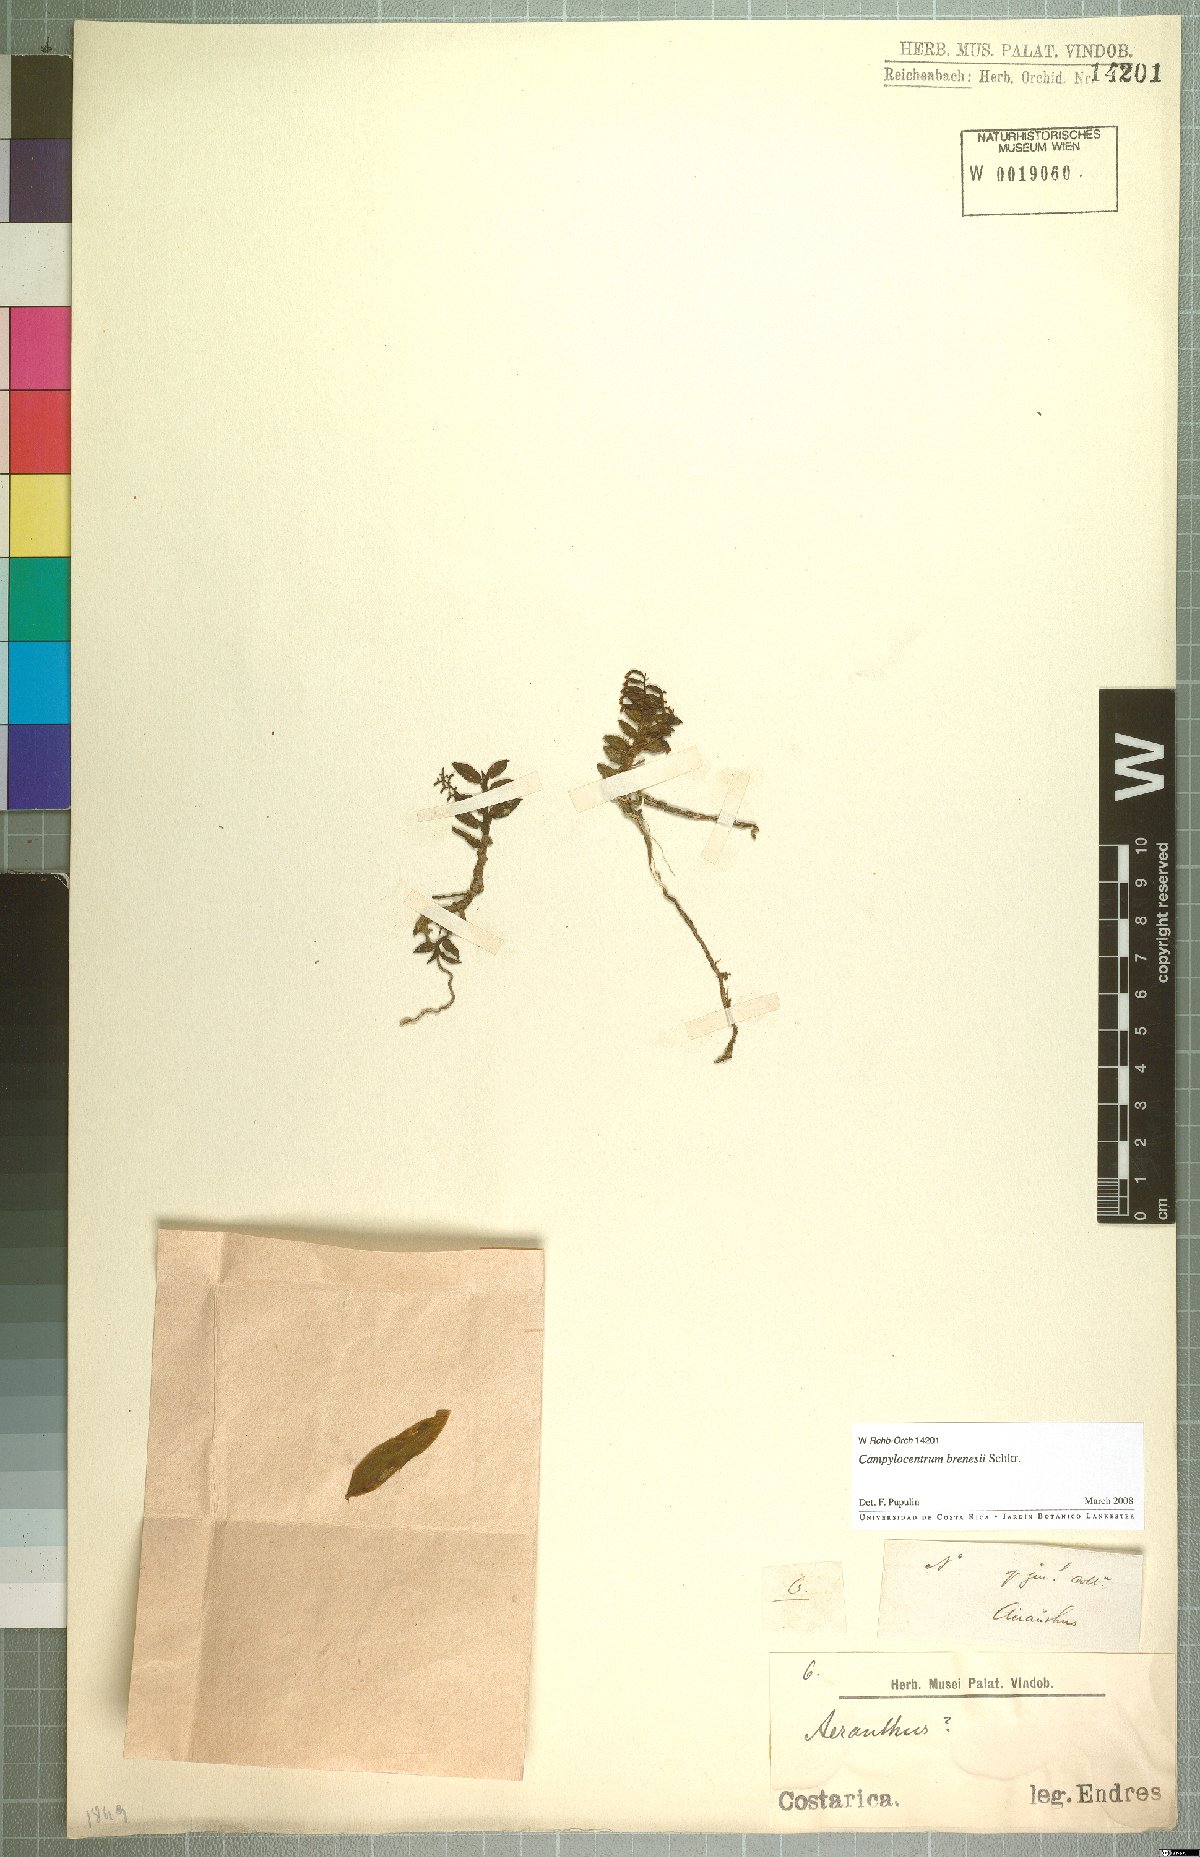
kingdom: Plantae
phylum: Tracheophyta
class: Liliopsida
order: Asparagales
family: Orchidaceae
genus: Campylocentrum
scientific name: Campylocentrum brenesii
